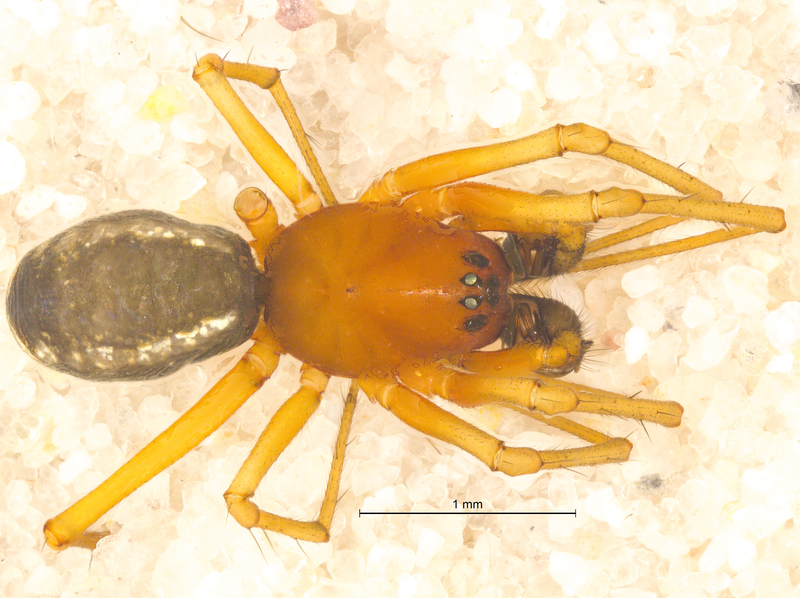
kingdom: Animalia
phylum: Arthropoda
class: Arachnida
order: Araneae
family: Linyphiidae
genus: Frontinellina
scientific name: Frontinellina frutetorum
